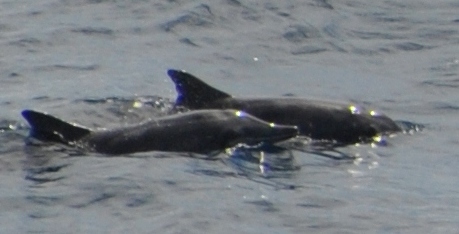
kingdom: Animalia
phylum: Chordata
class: Mammalia
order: Cetacea
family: Delphinidae
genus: Steno
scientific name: Steno bredanensis
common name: Rough-toothed Dolphin
